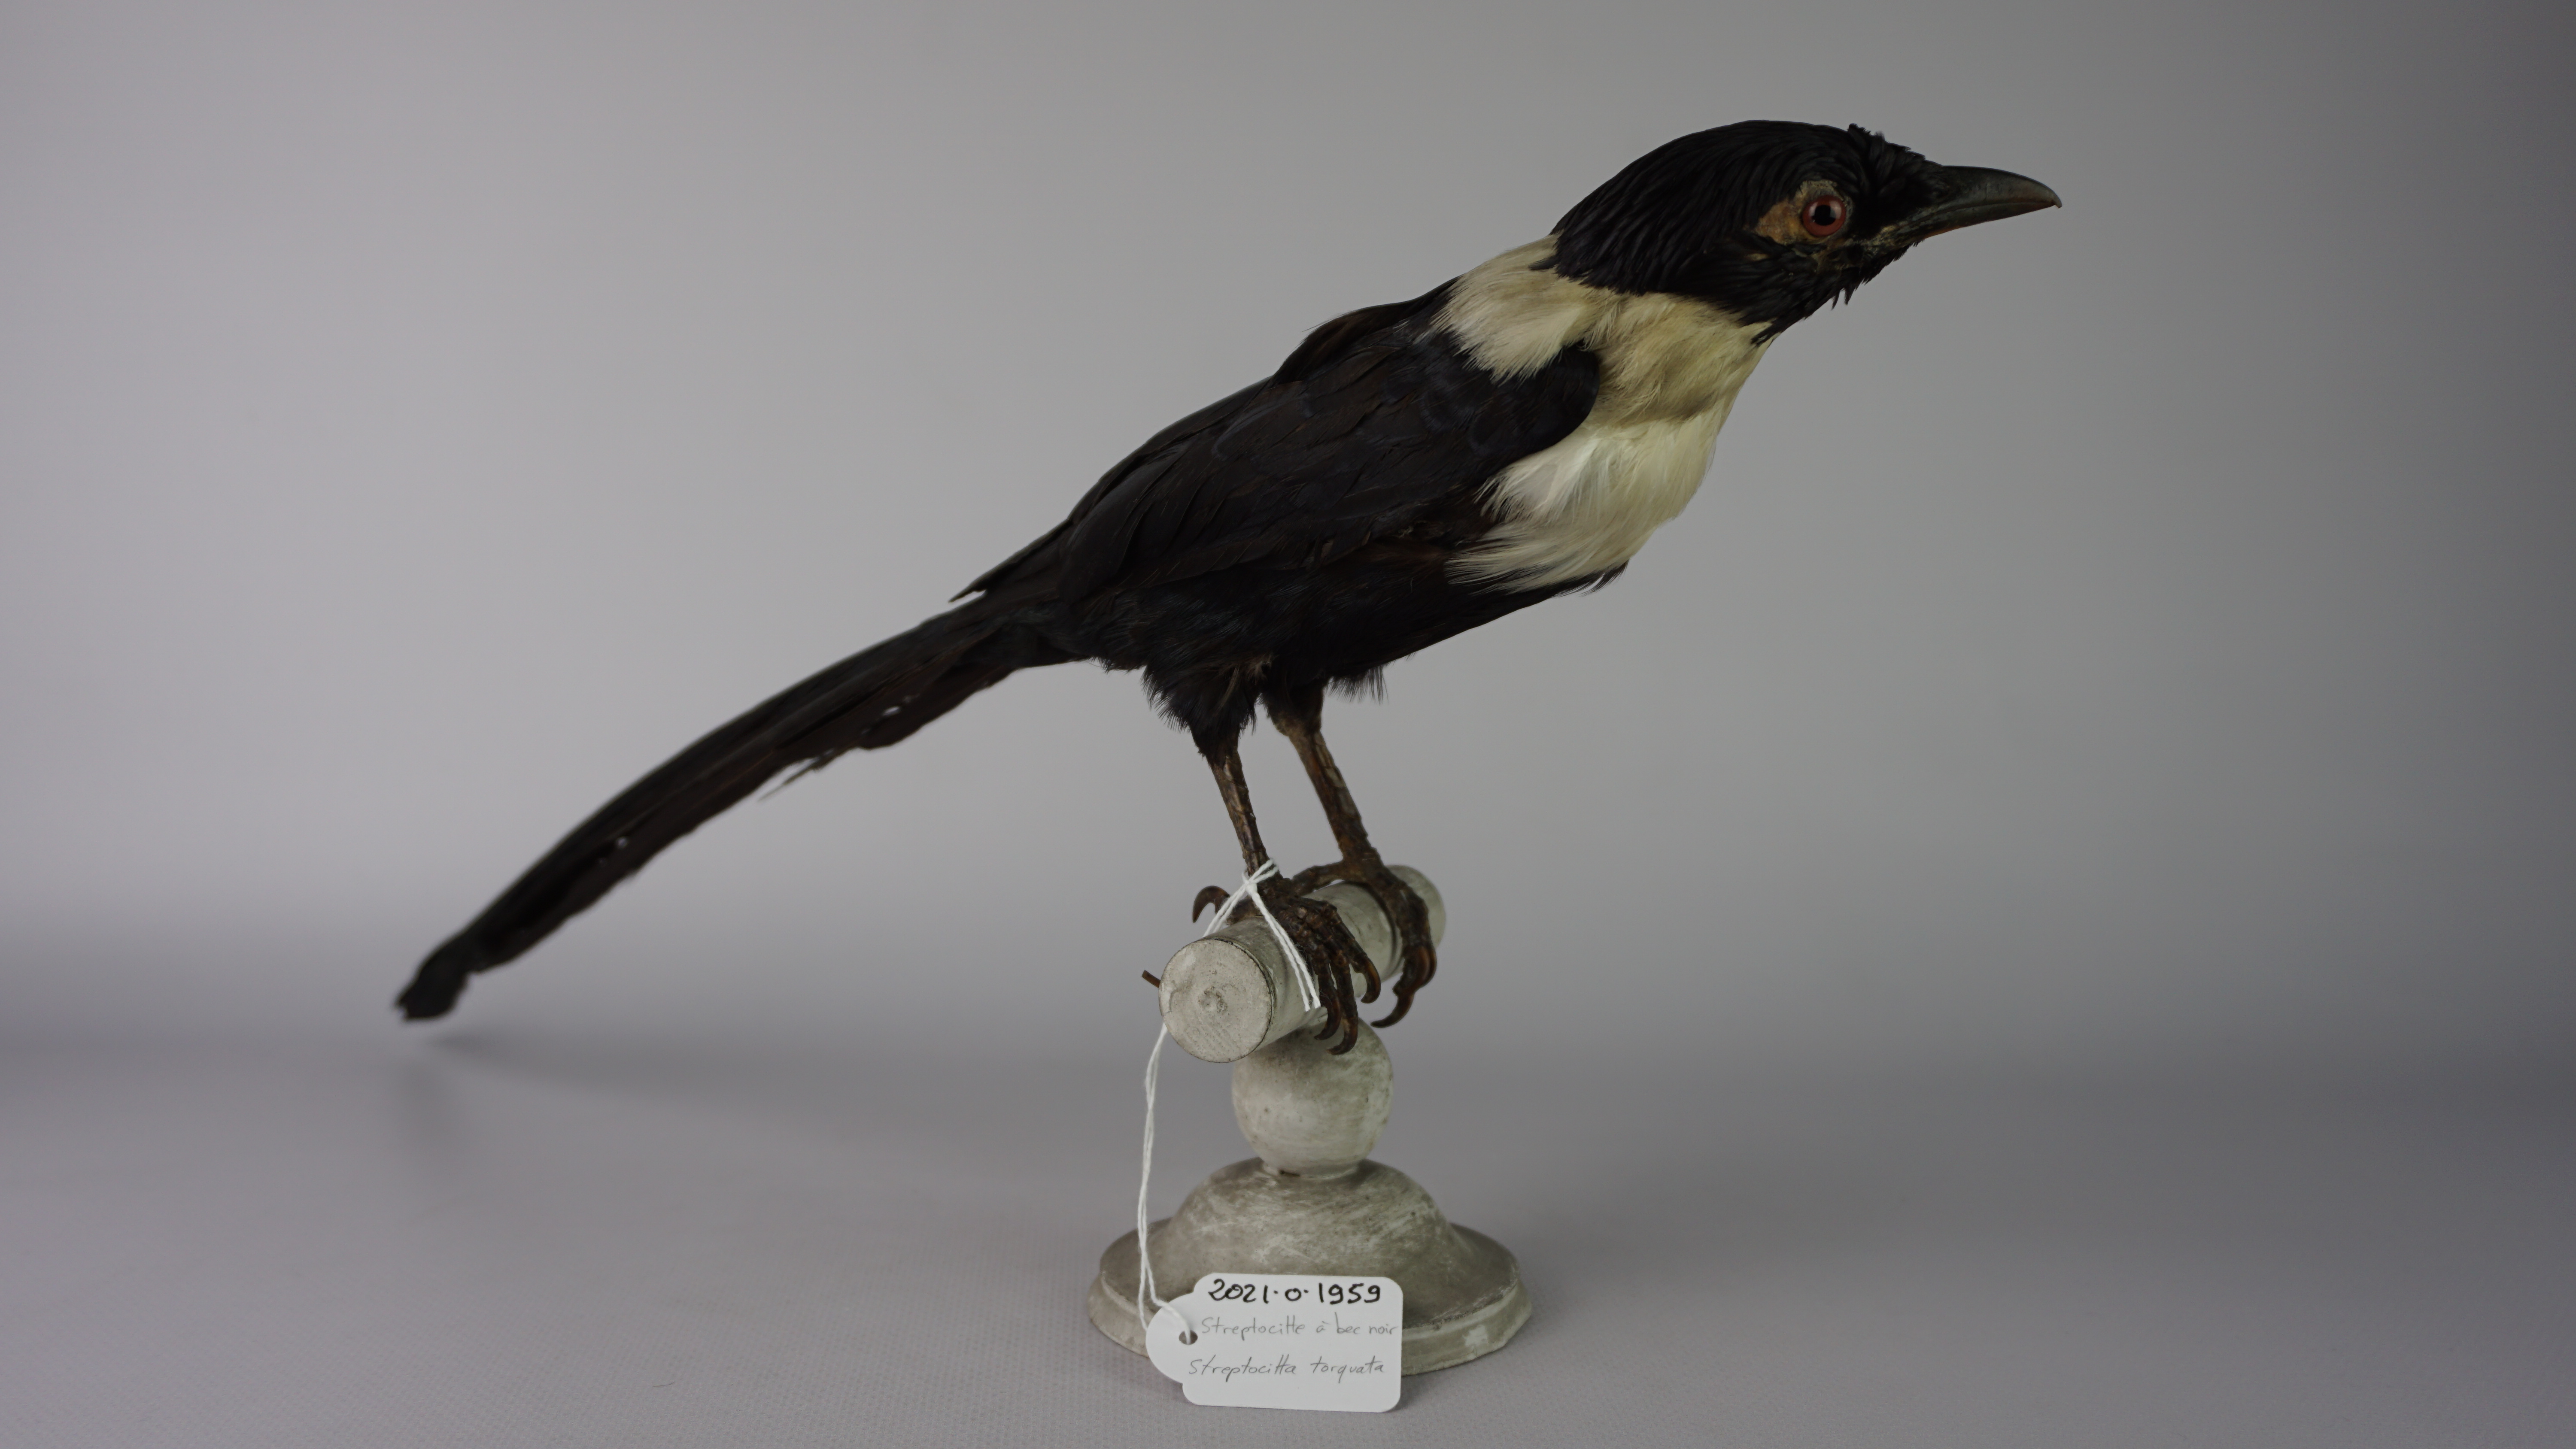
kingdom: Animalia
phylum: Chordata
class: Aves
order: Passeriformes
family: Sturnidae
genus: Streptocitta
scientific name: Streptocitta albicollis
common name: White-necked myna
